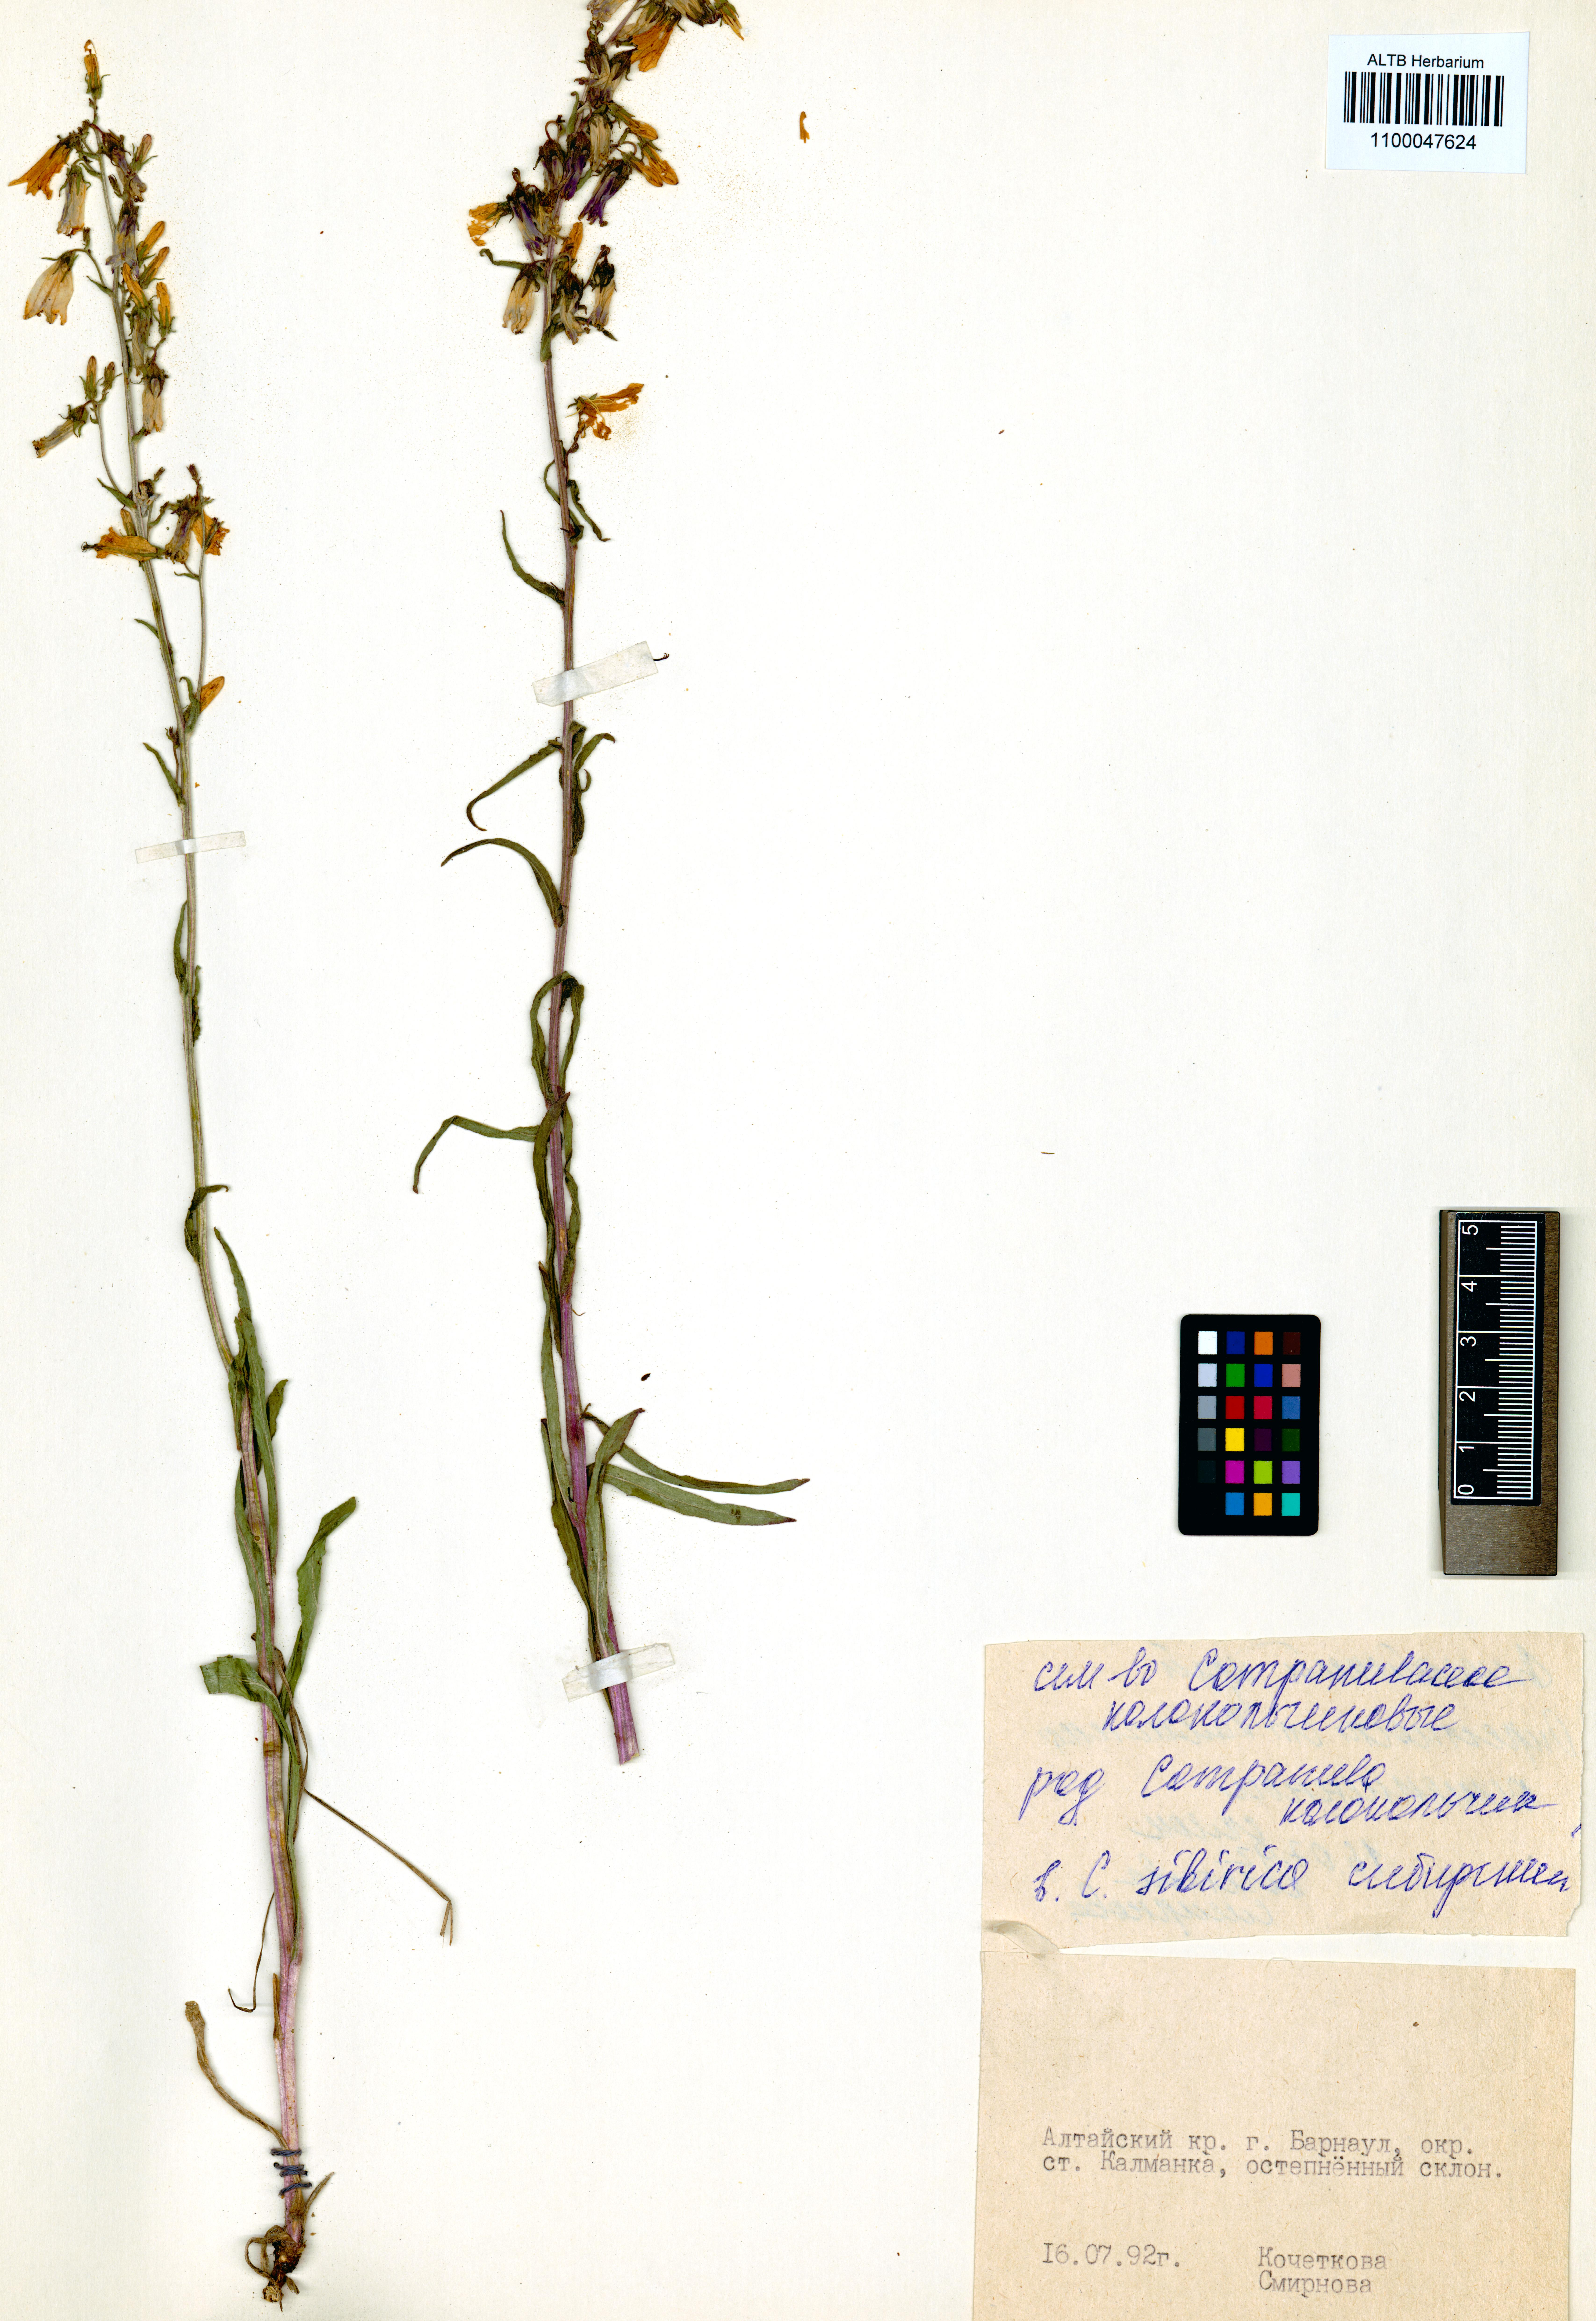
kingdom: Plantae
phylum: Tracheophyta
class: Magnoliopsida
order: Asterales
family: Campanulaceae
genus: Campanula
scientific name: Campanula sibirica
